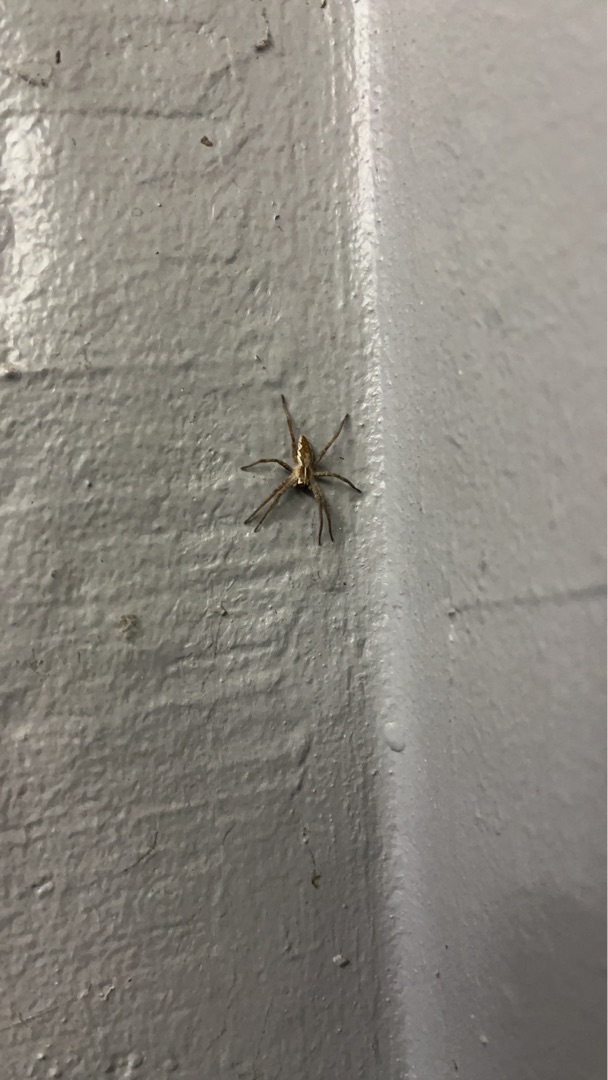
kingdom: Animalia
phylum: Arthropoda
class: Arachnida
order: Araneae
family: Pisauridae
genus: Pisaura
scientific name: Pisaura mirabilis
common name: Almindelig rovedderkop
